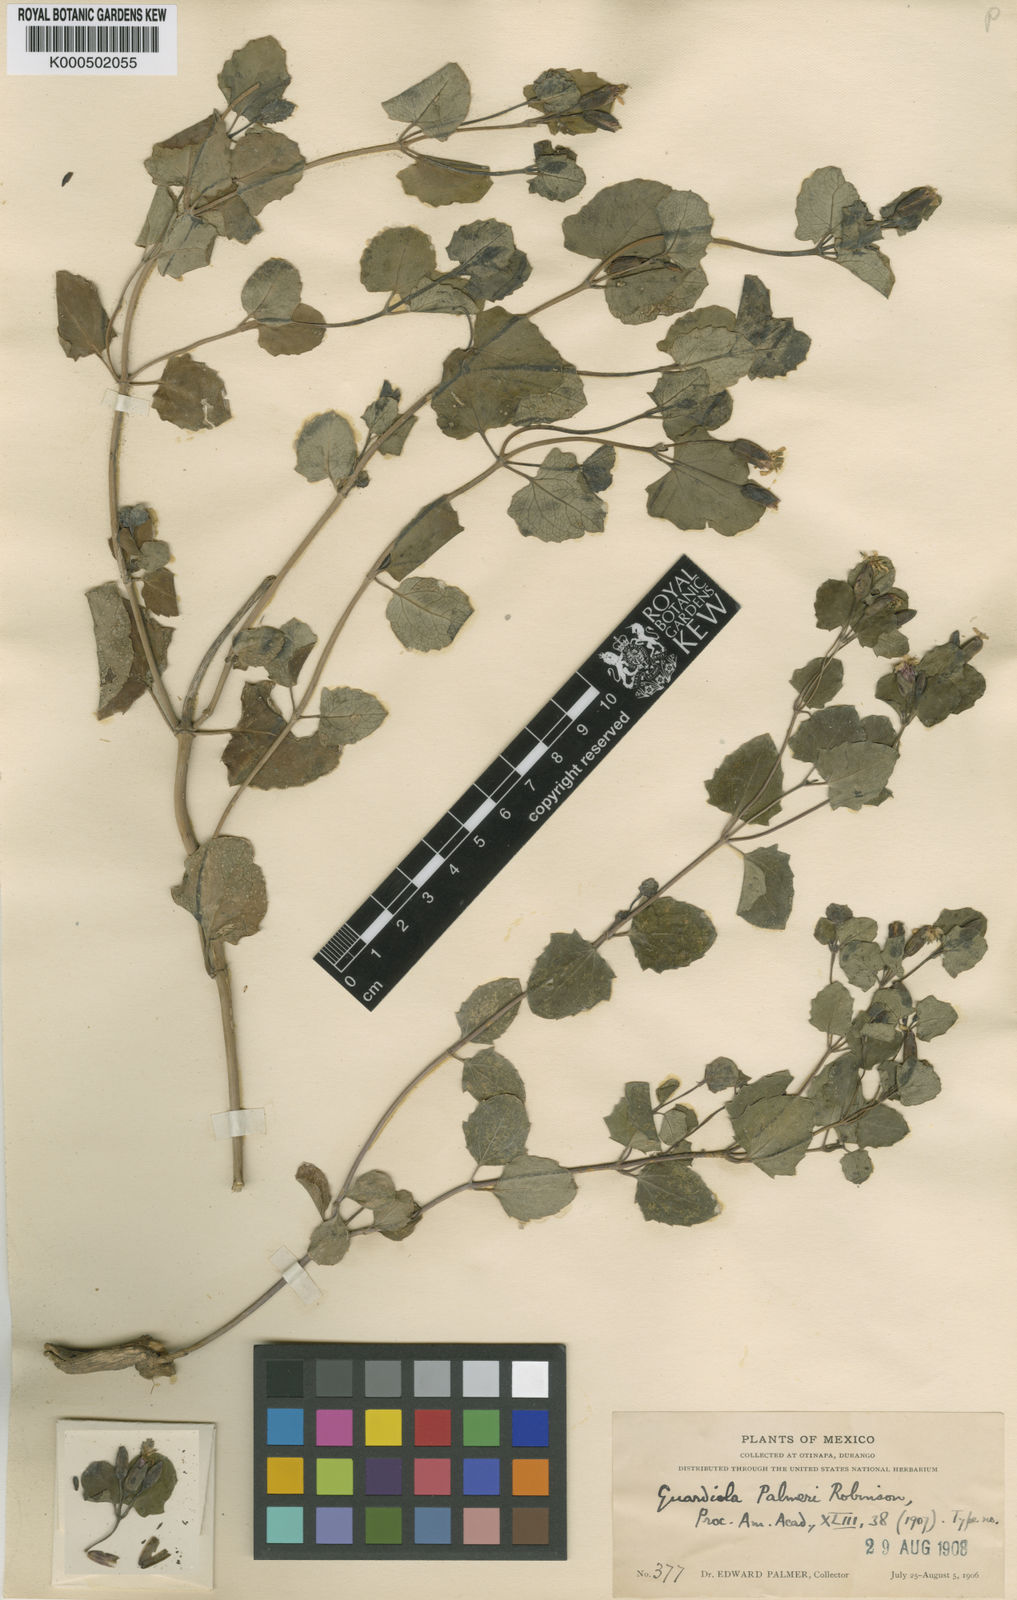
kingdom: Plantae
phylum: Tracheophyta
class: Magnoliopsida
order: Asterales
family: Asteraceae
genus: Guardiola
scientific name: Guardiola palmeri
